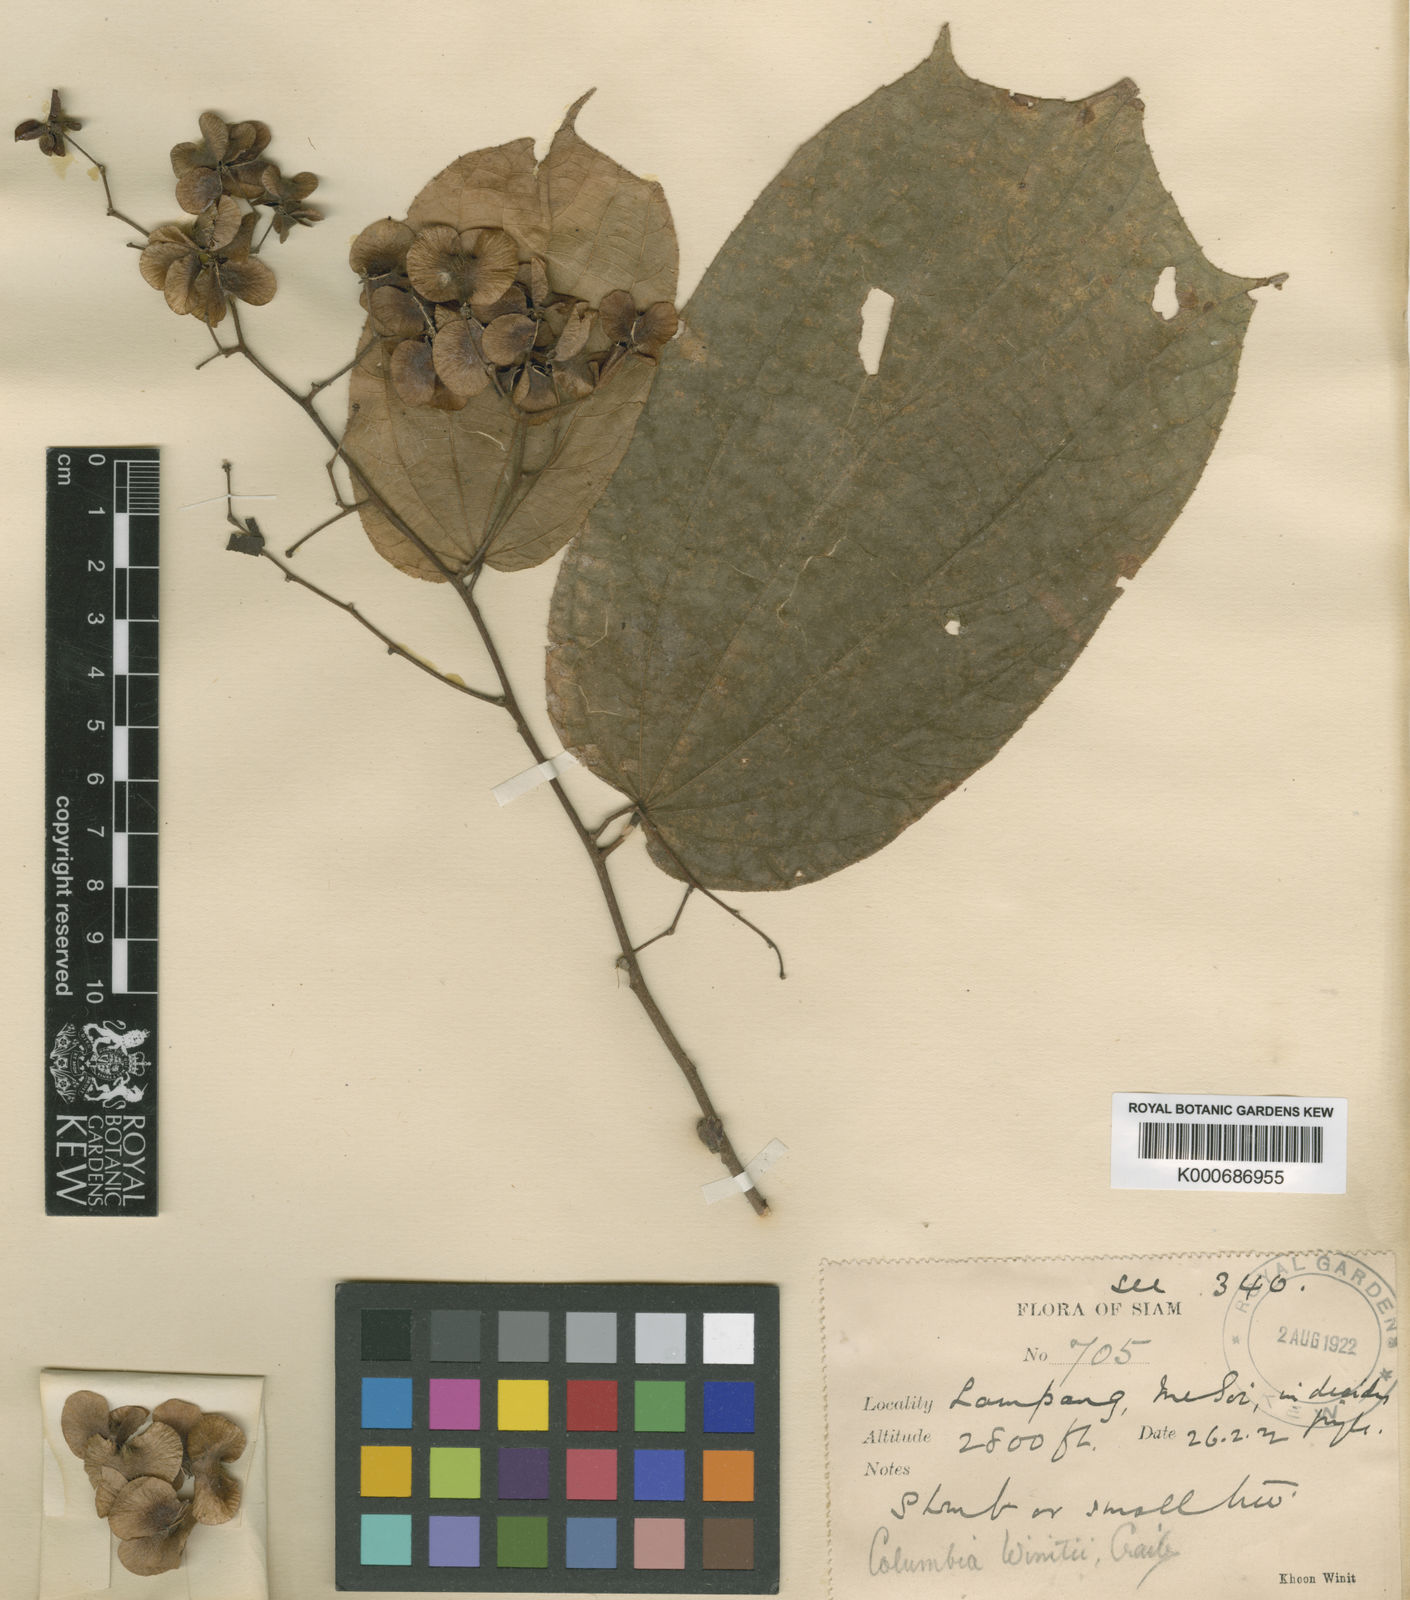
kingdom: Plantae
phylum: Tracheophyta
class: Magnoliopsida
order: Malvales
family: Malvaceae
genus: Colona
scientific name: Colona winitii
